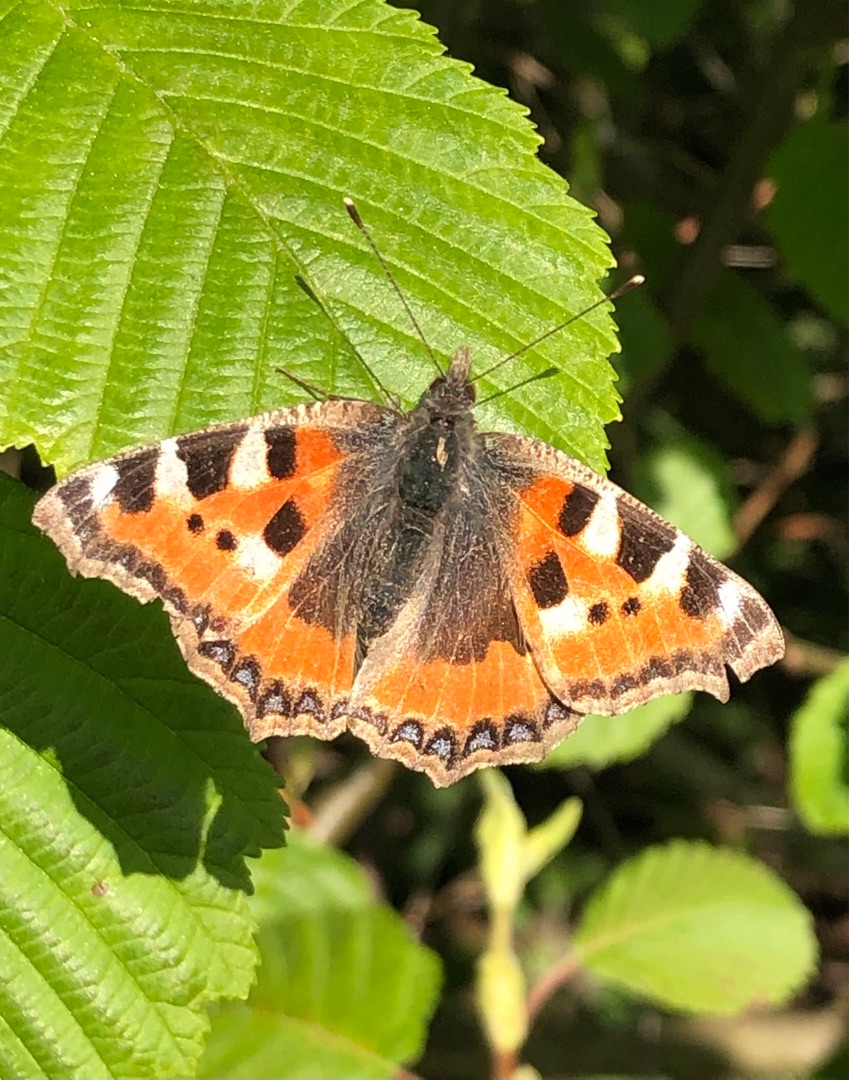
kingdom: Animalia
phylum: Arthropoda
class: Insecta
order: Lepidoptera
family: Nymphalidae
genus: Aglais
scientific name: Aglais urticae
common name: Nældens takvinge
